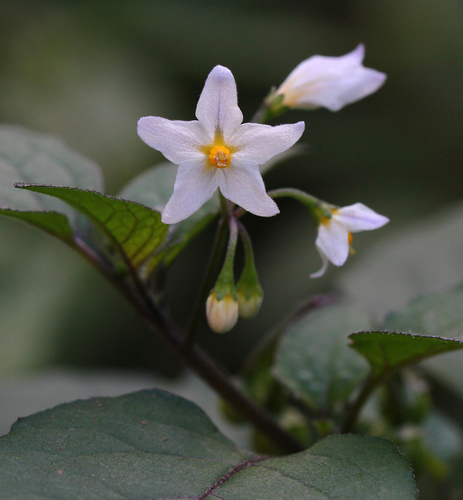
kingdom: Plantae
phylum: Tracheophyta
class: Magnoliopsida
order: Solanales
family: Solanaceae
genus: Solanum
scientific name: Solanum nigrum
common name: Black nightshade
